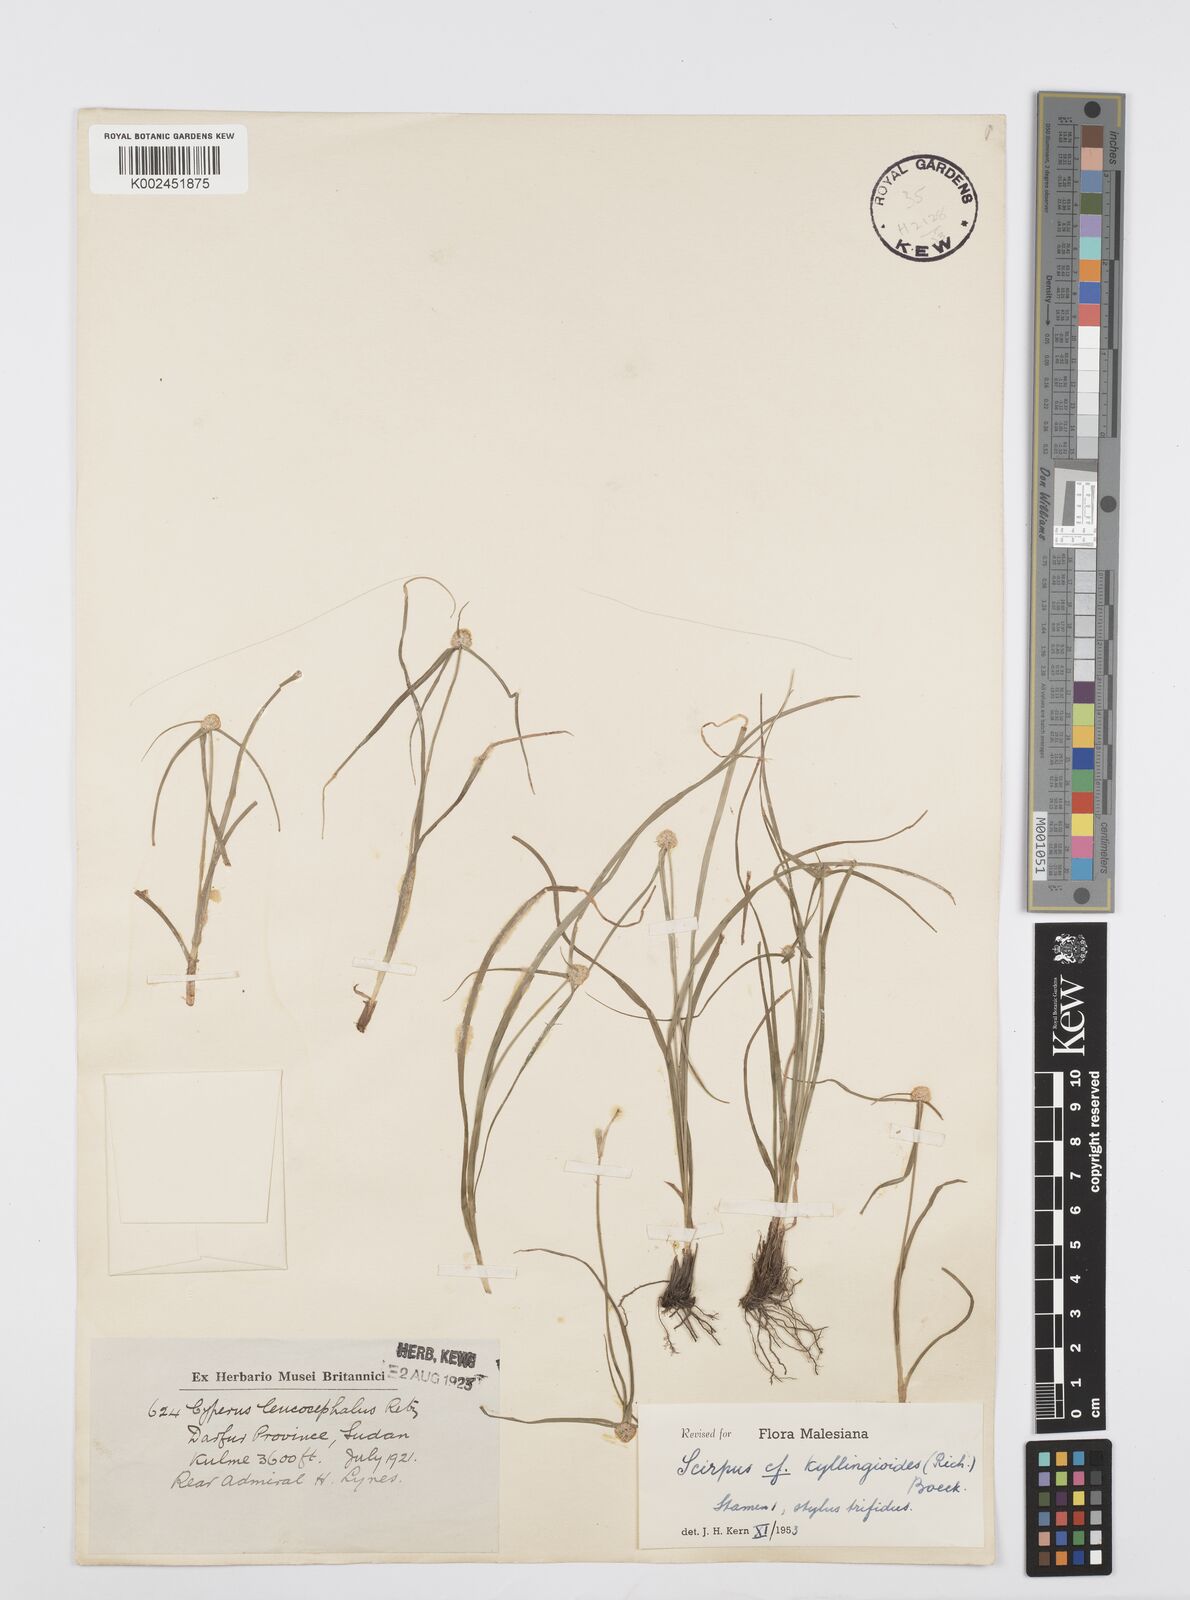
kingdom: Plantae
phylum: Tracheophyta
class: Liliopsida
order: Poales
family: Cyperaceae
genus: Cyperus
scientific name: Cyperus microcephalus
